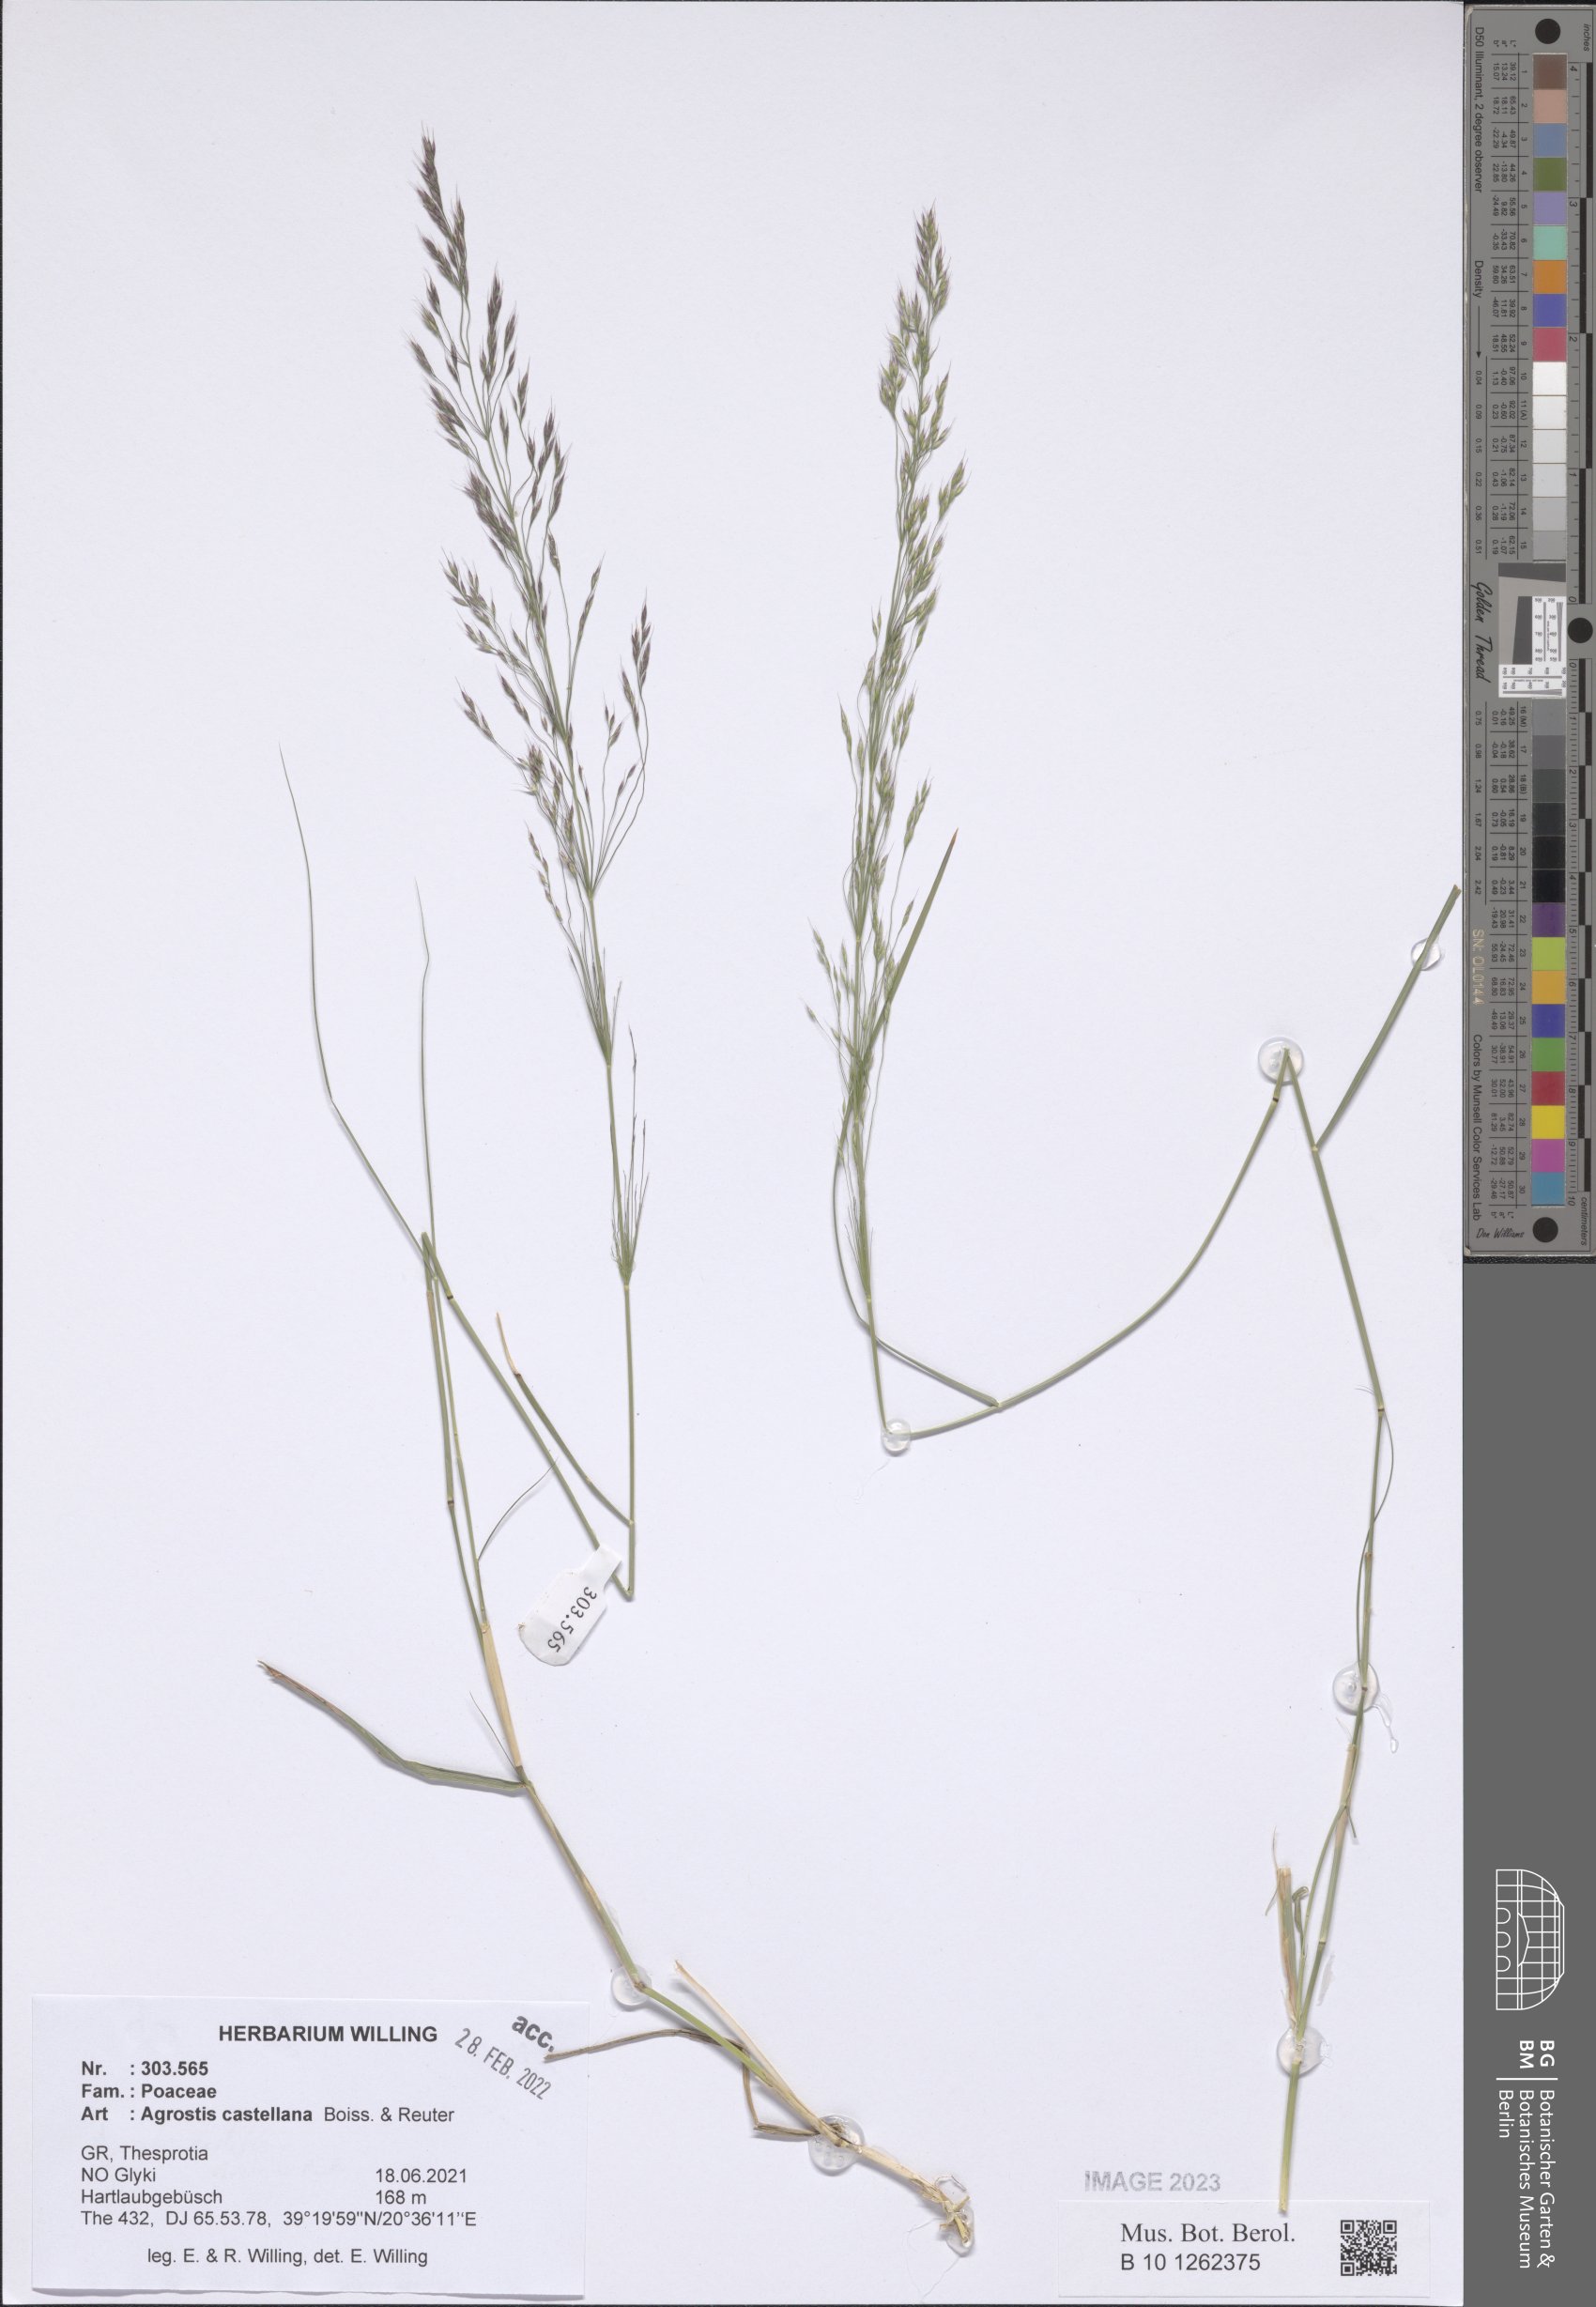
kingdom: Plantae
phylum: Tracheophyta
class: Liliopsida
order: Poales
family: Poaceae
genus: Agrostis
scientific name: Agrostis castellana
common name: Highland bent
